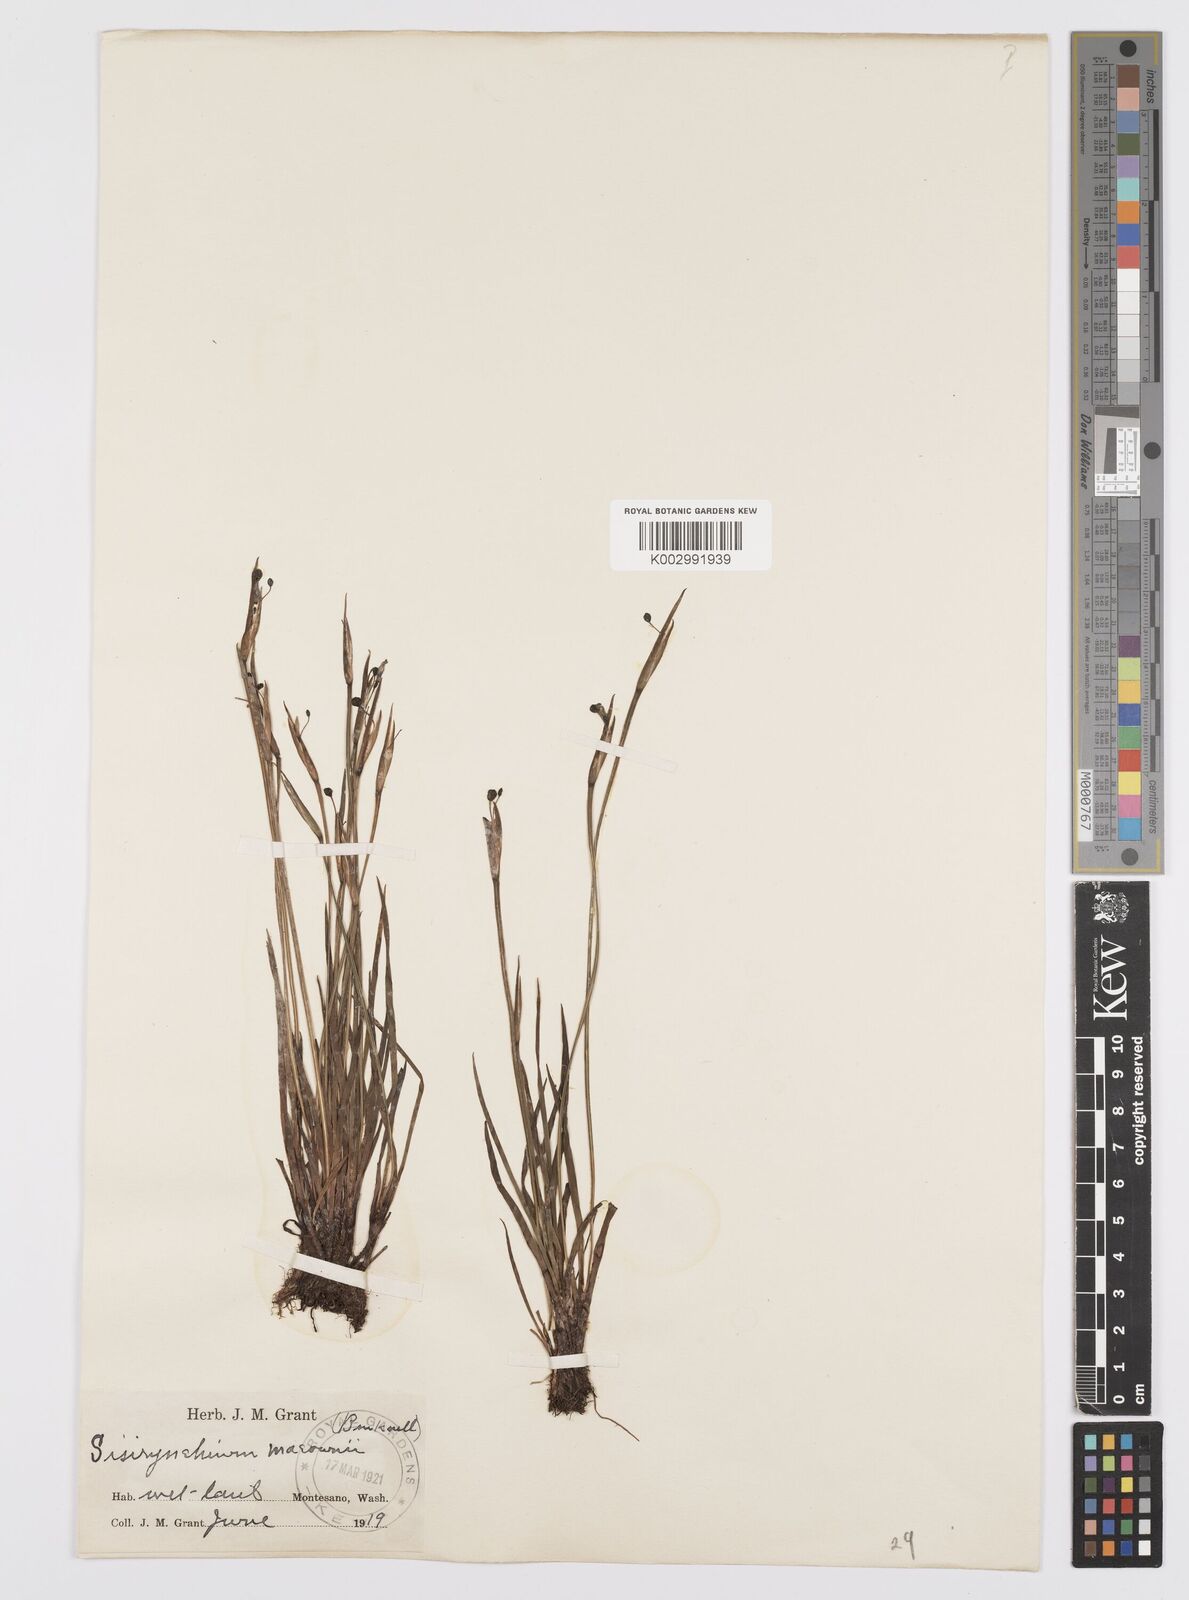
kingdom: Plantae
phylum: Tracheophyta
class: Liliopsida
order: Asparagales
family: Iridaceae
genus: Sisyrinchium
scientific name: Sisyrinchium idahoense
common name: Idaho blue-eyed-grass
